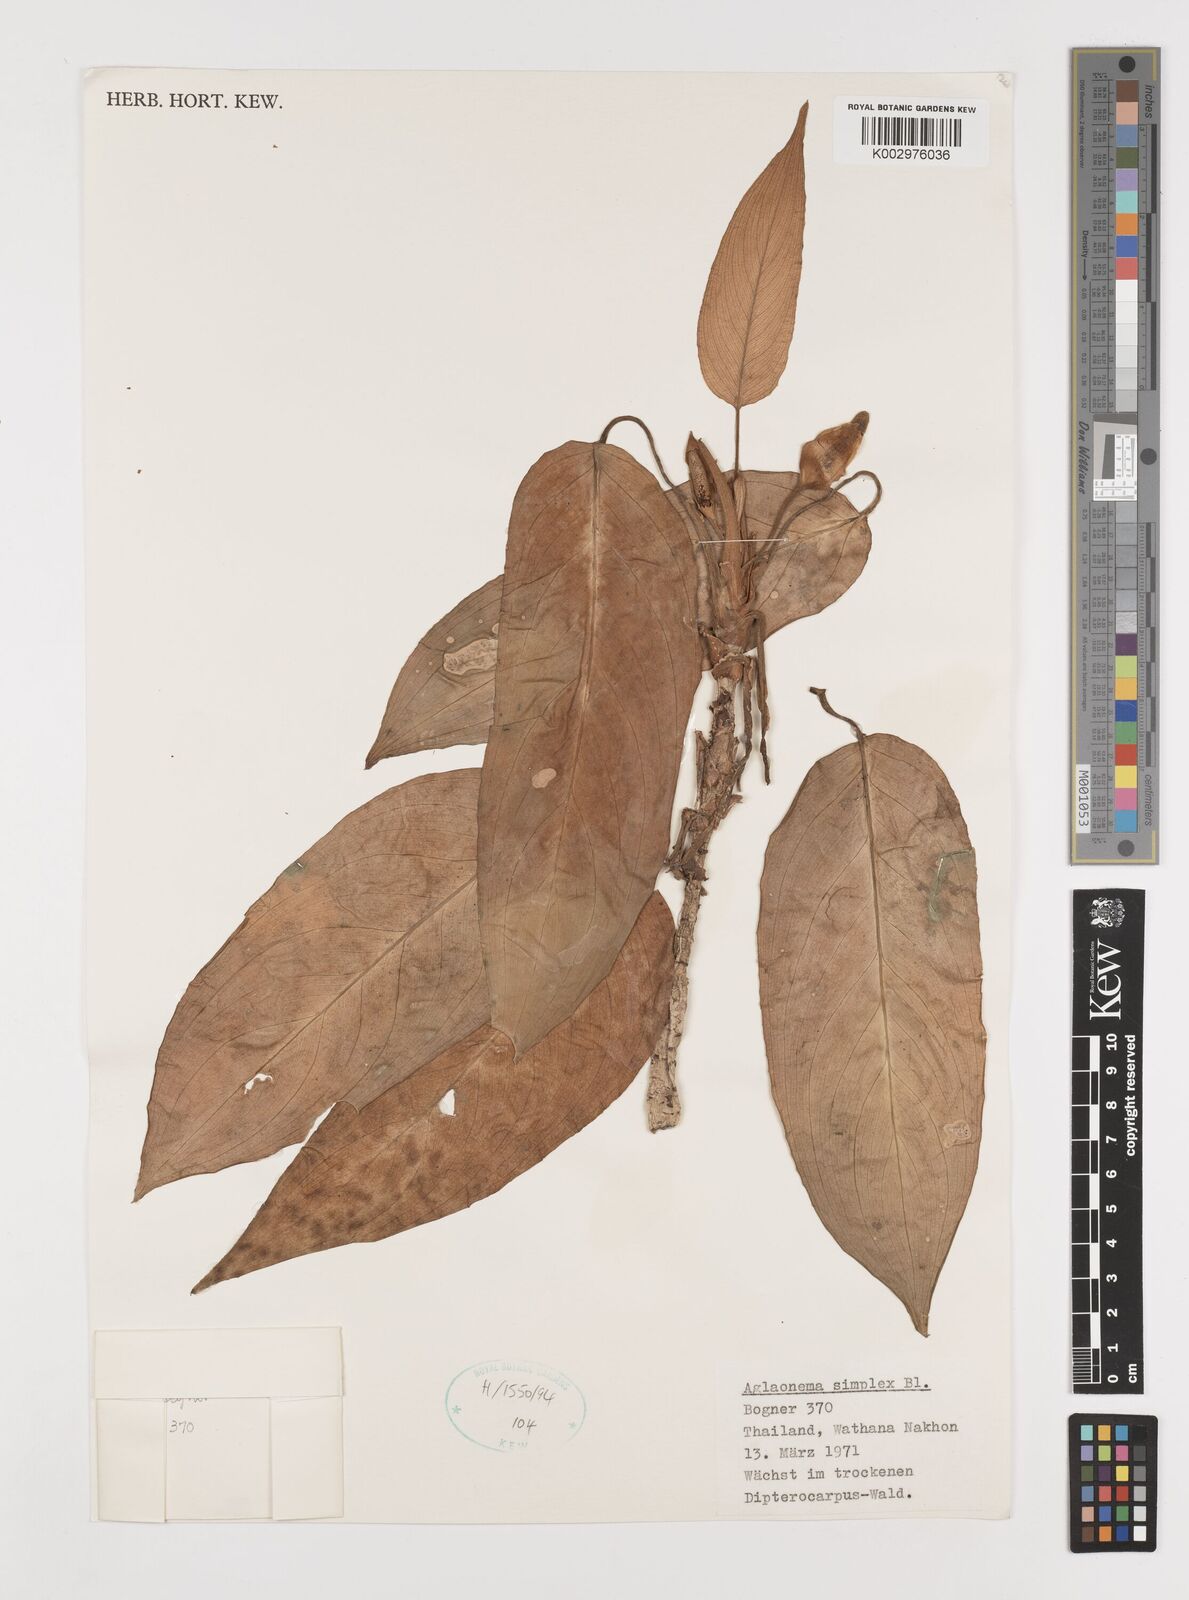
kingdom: Plantae
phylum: Tracheophyta
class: Liliopsida
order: Alismatales
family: Araceae
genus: Aglaonema
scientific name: Aglaonema simplex
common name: Malayan-sword
